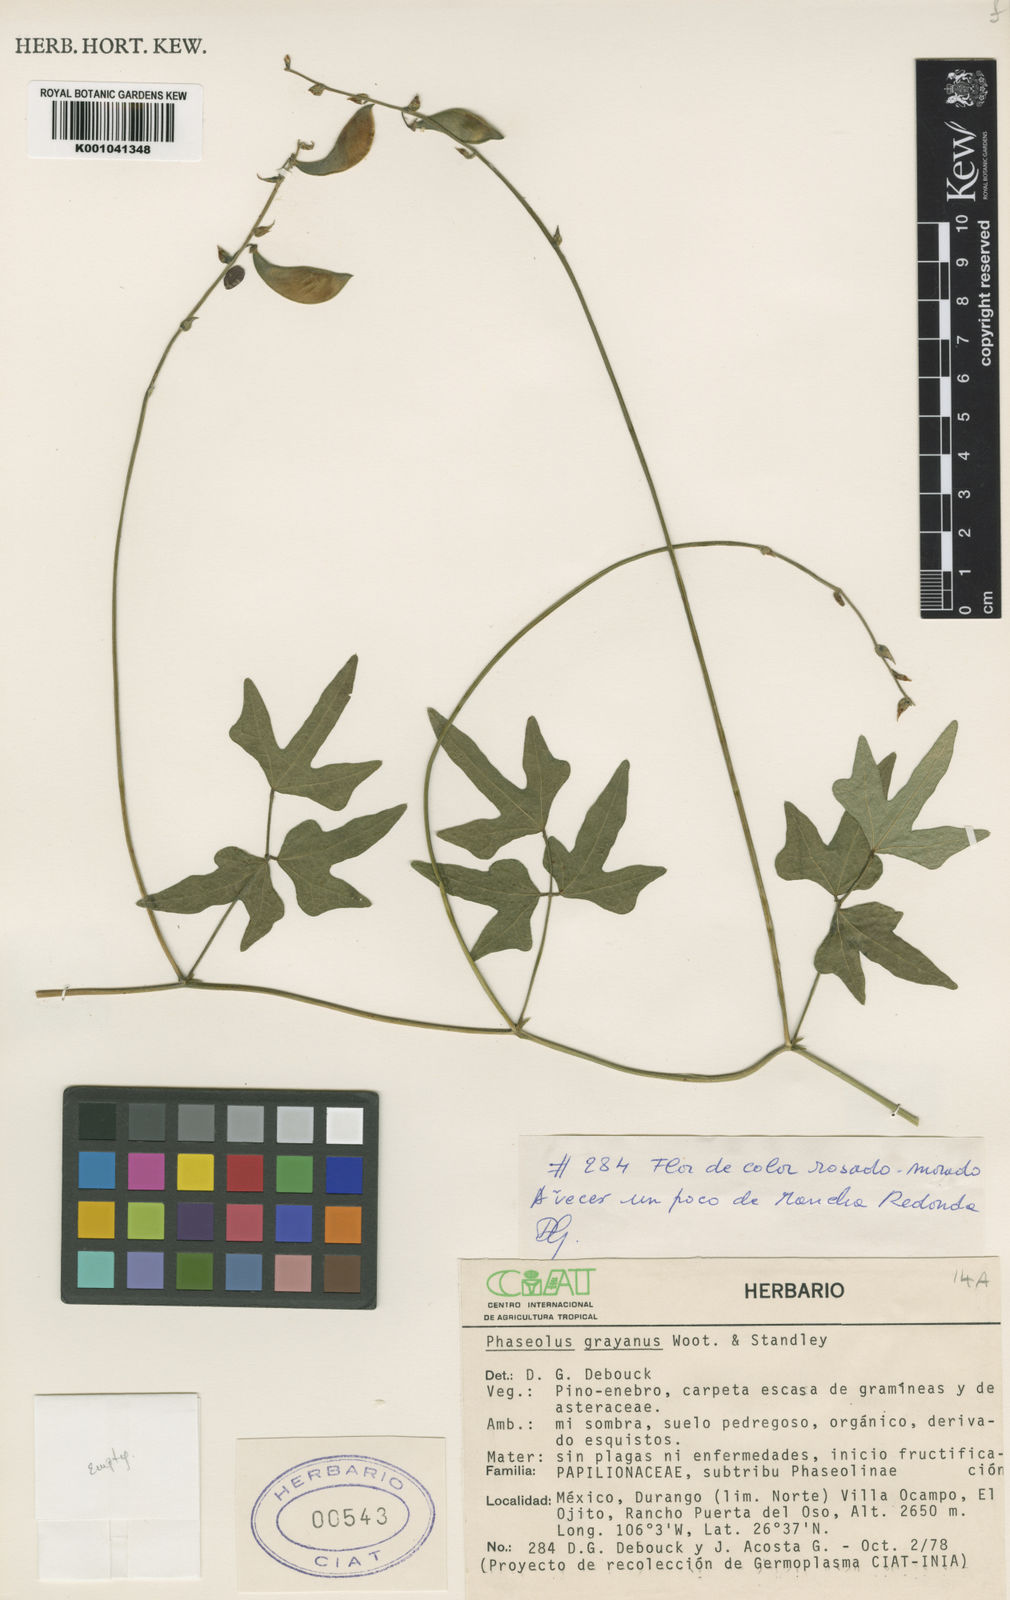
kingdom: Plantae
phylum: Tracheophyta
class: Magnoliopsida
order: Fabales
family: Fabaceae
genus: Phaseolus
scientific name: Phaseolus pedicellatus
